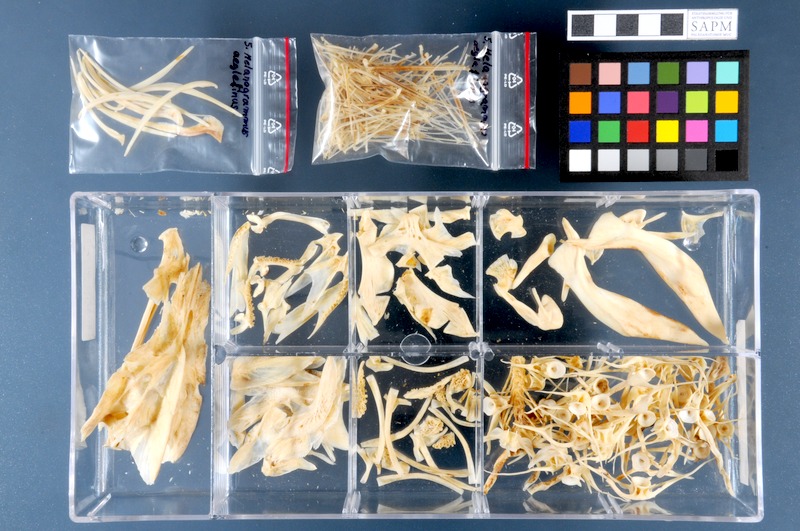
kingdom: Animalia
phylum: Chordata
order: Gadiformes
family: Gadidae
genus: Melanogrammus
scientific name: Melanogrammus aeglefinus
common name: Haddock
